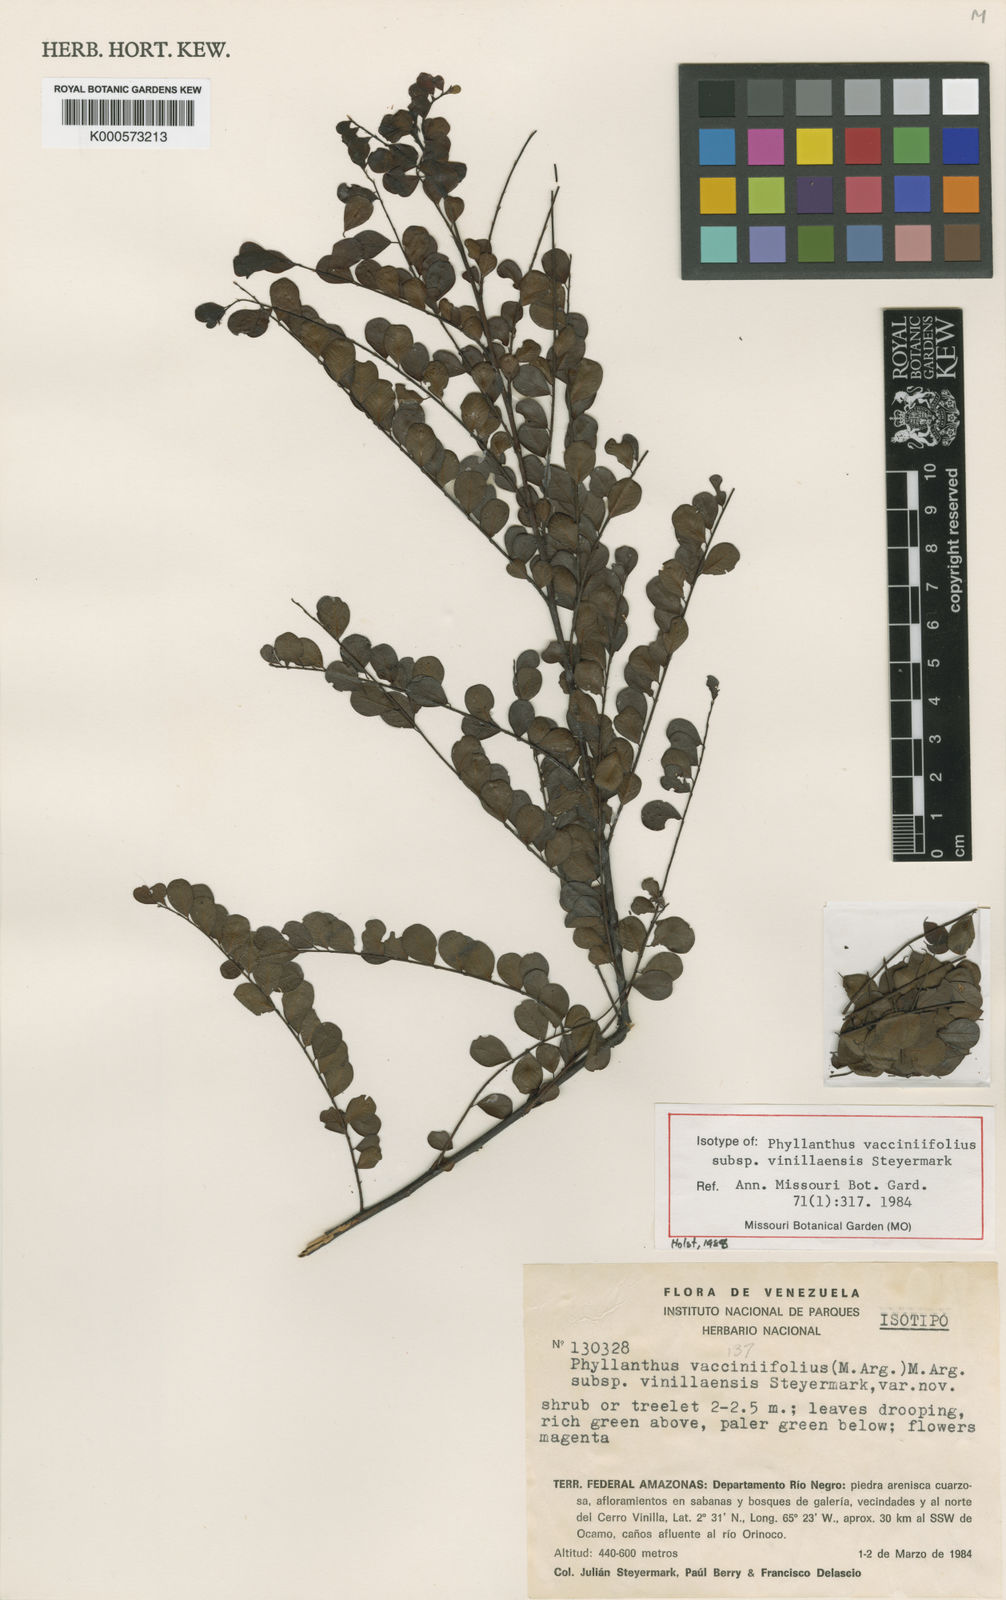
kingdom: Plantae
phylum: Tracheophyta
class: Magnoliopsida
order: Malpighiales
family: Phyllanthaceae
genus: Phyllanthus
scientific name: Phyllanthus vacciniifolius
